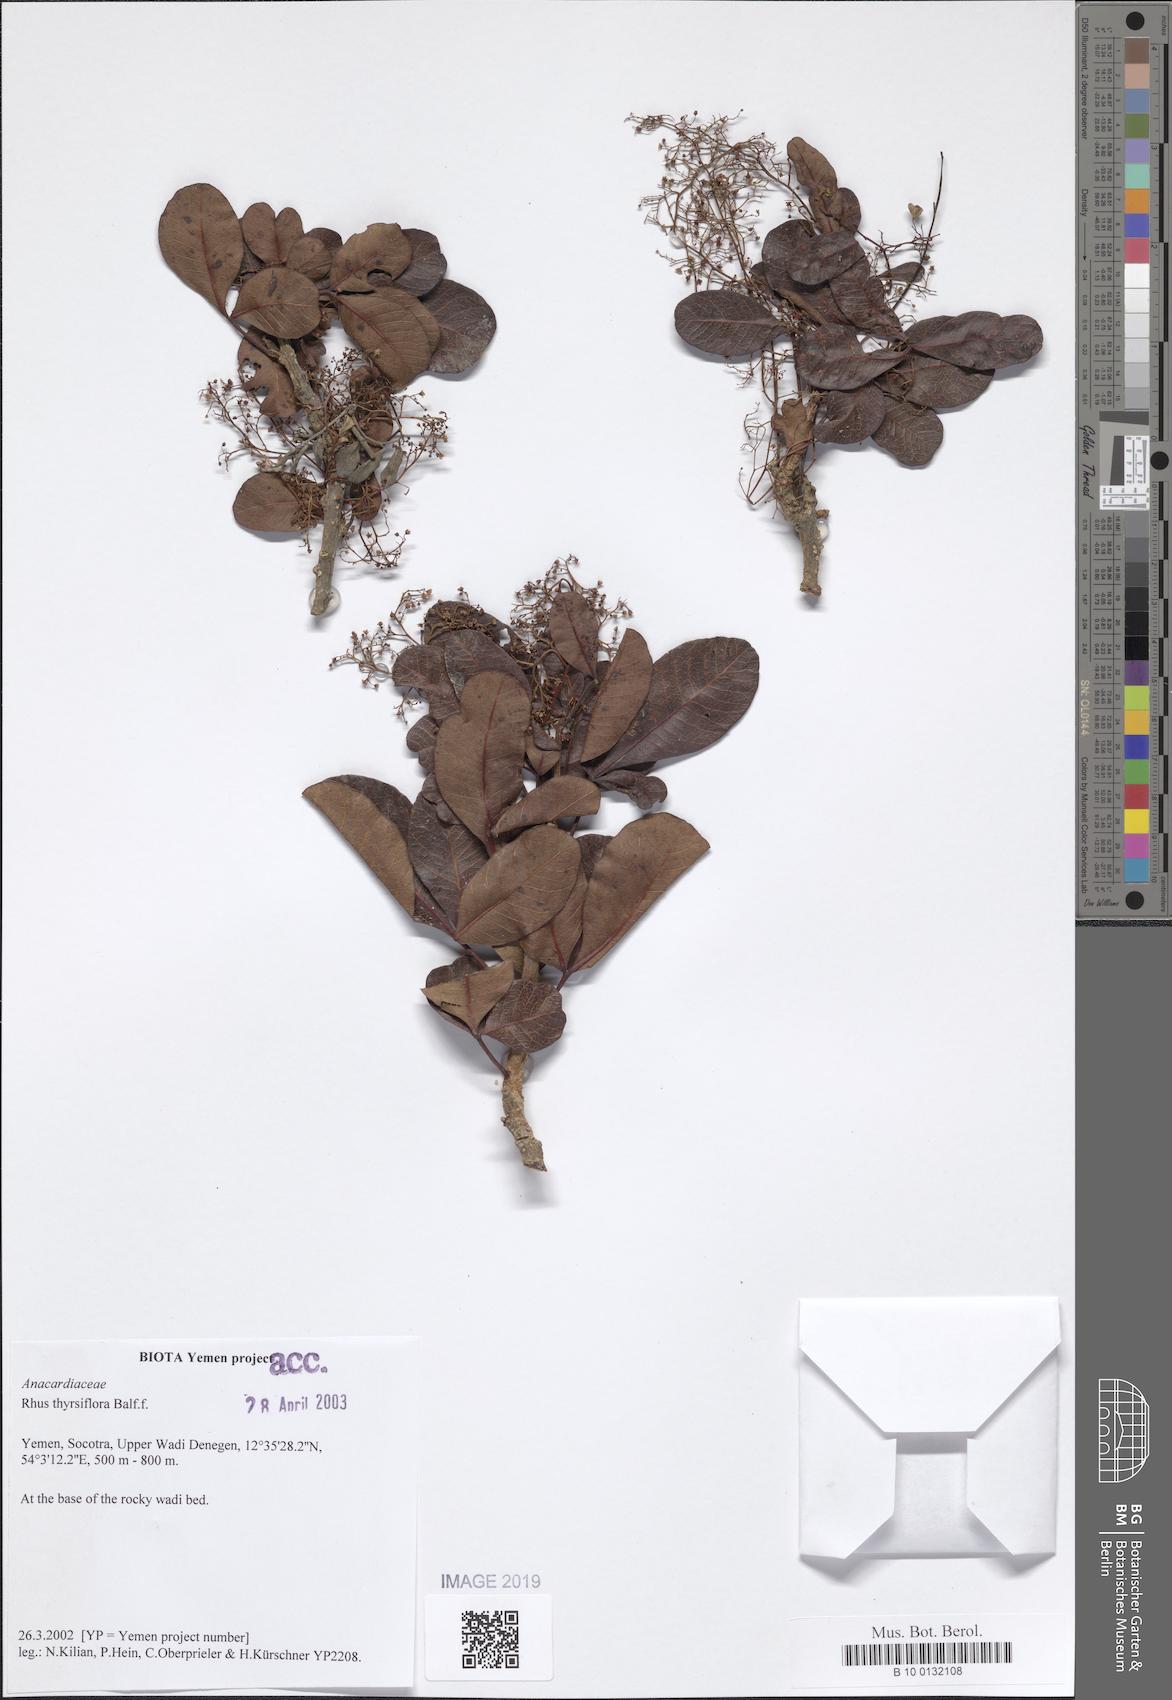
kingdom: Plantae
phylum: Tracheophyta
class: Magnoliopsida
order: Sapindales
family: Anacardiaceae
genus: Searsia
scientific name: Searsia thyrsiflora
